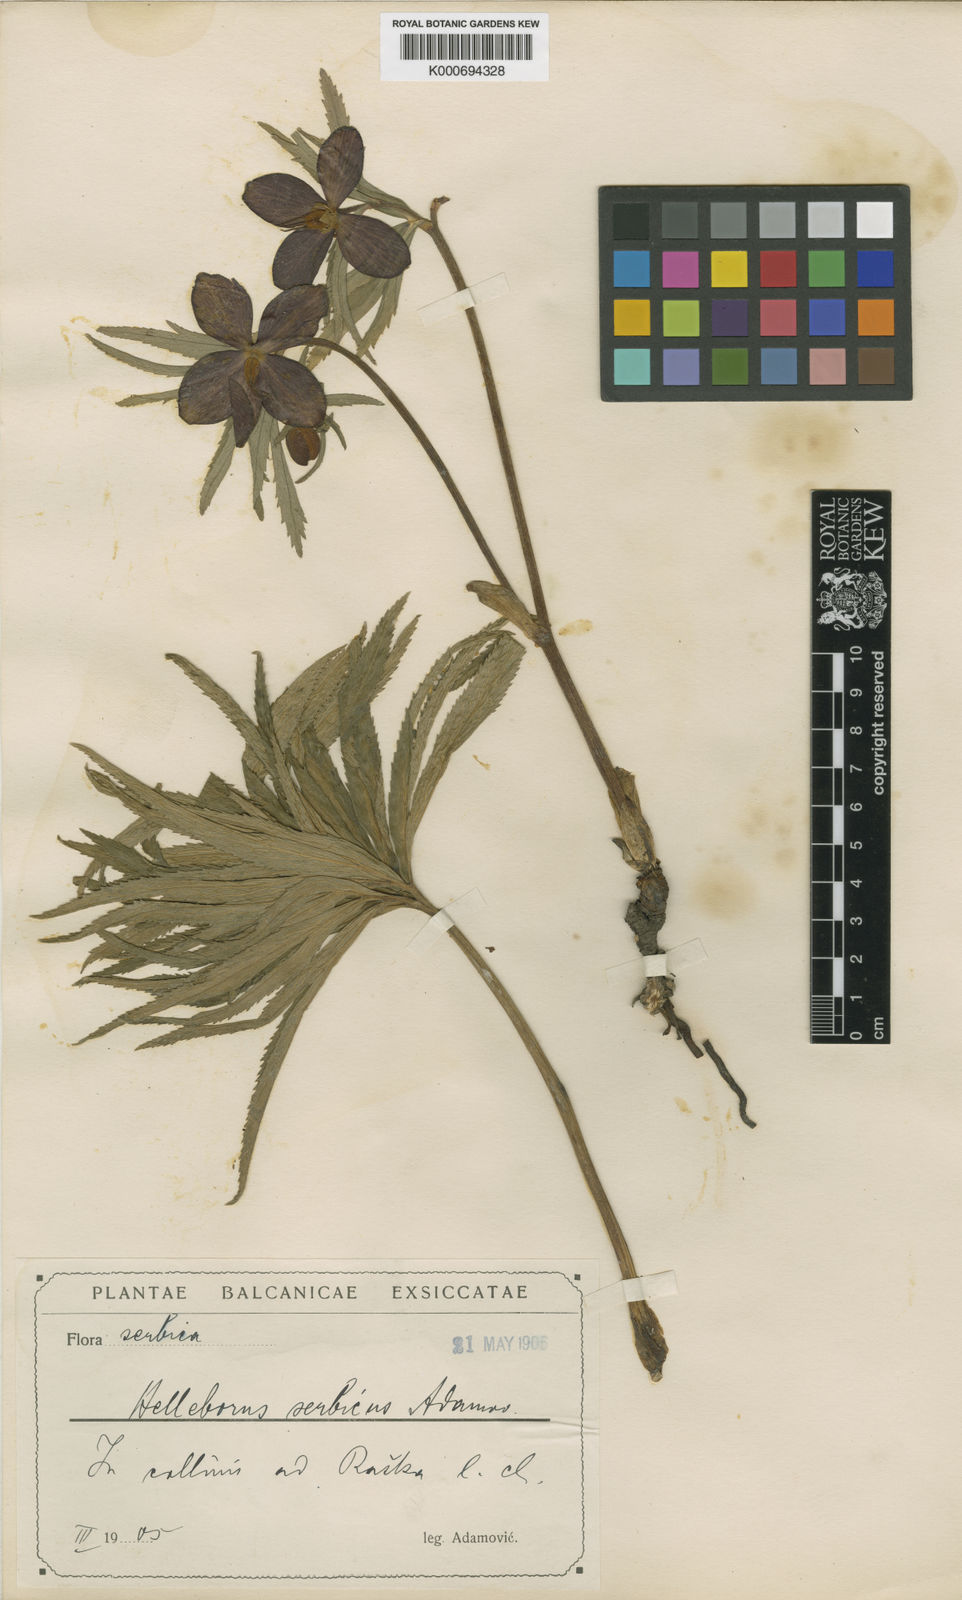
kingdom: Plantae
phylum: Tracheophyta
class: Magnoliopsida
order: Ranunculales
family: Ranunculaceae
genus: Helleborus
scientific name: Helleborus multifidus
